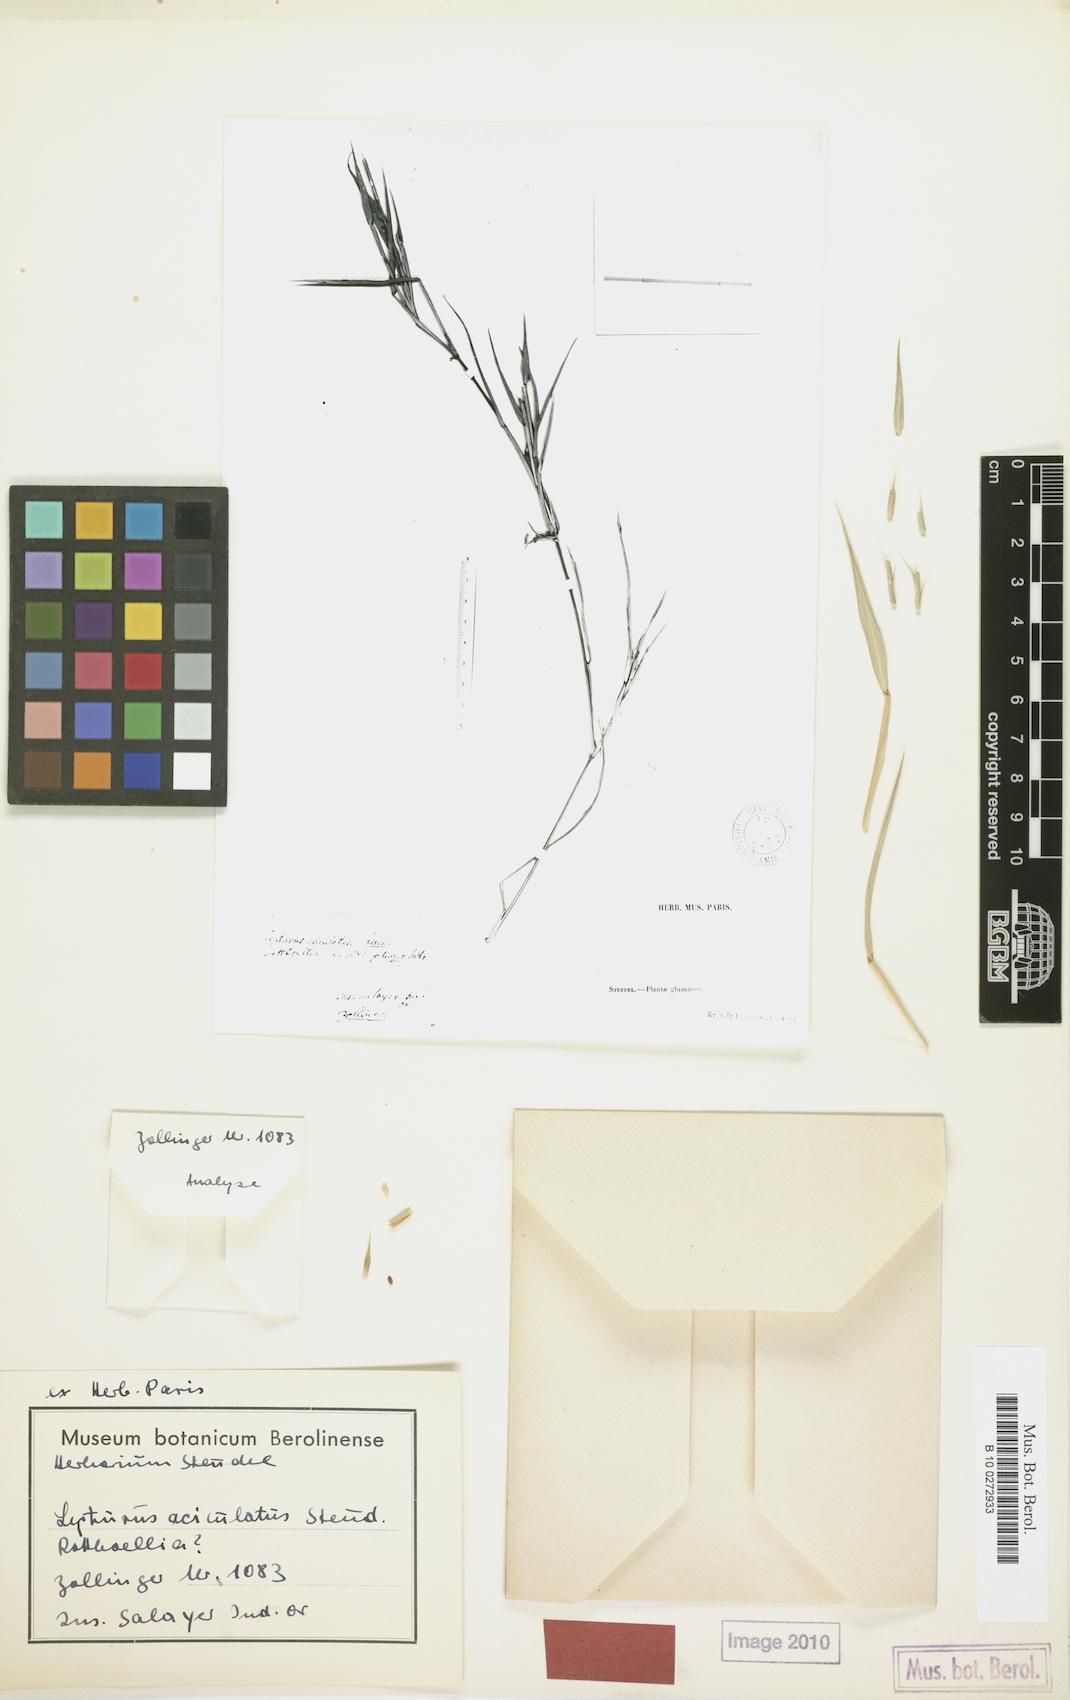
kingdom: Plantae
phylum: Tracheophyta
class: Liliopsida
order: Poales
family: Poaceae
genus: Lepturus
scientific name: Lepturus repens
